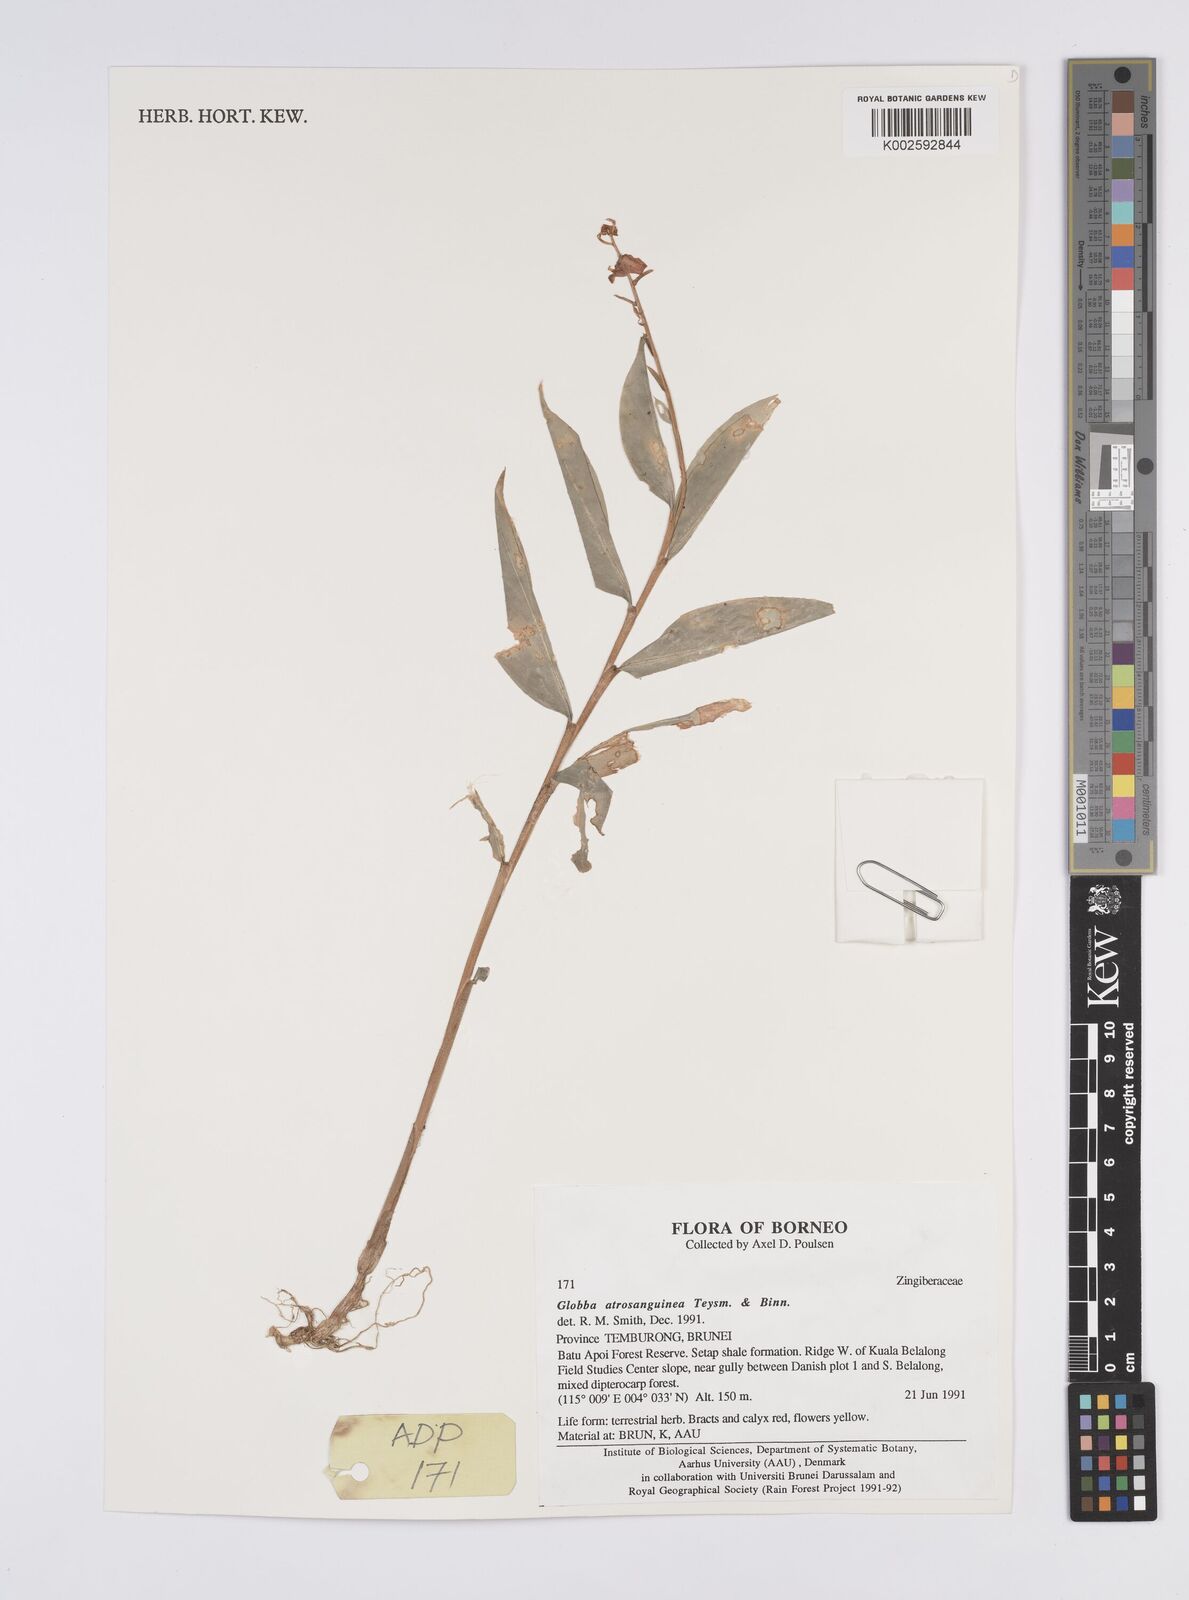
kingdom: Plantae
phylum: Tracheophyta
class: Liliopsida
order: Zingiberales
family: Zingiberaceae
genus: Globba
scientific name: Globba atrosanguinea
